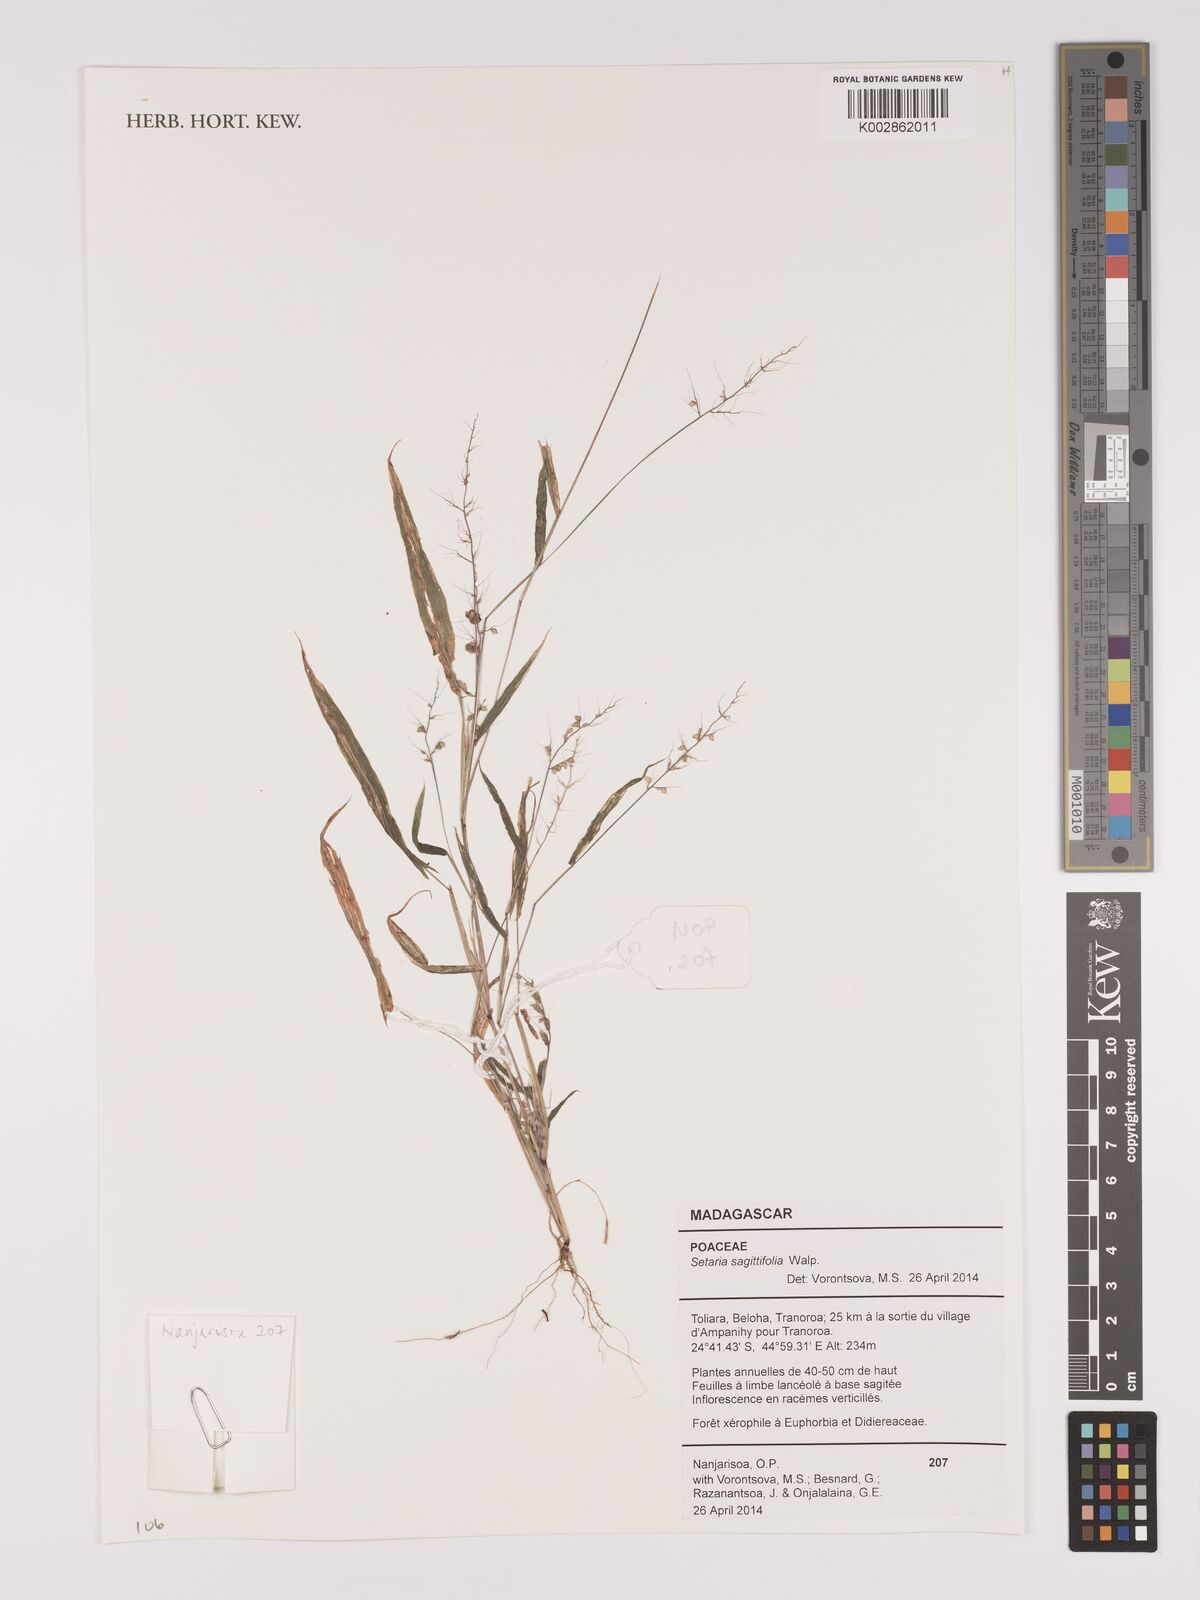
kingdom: Plantae
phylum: Tracheophyta
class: Liliopsida
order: Poales
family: Poaceae
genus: Setaria
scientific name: Setaria sagittifolia
